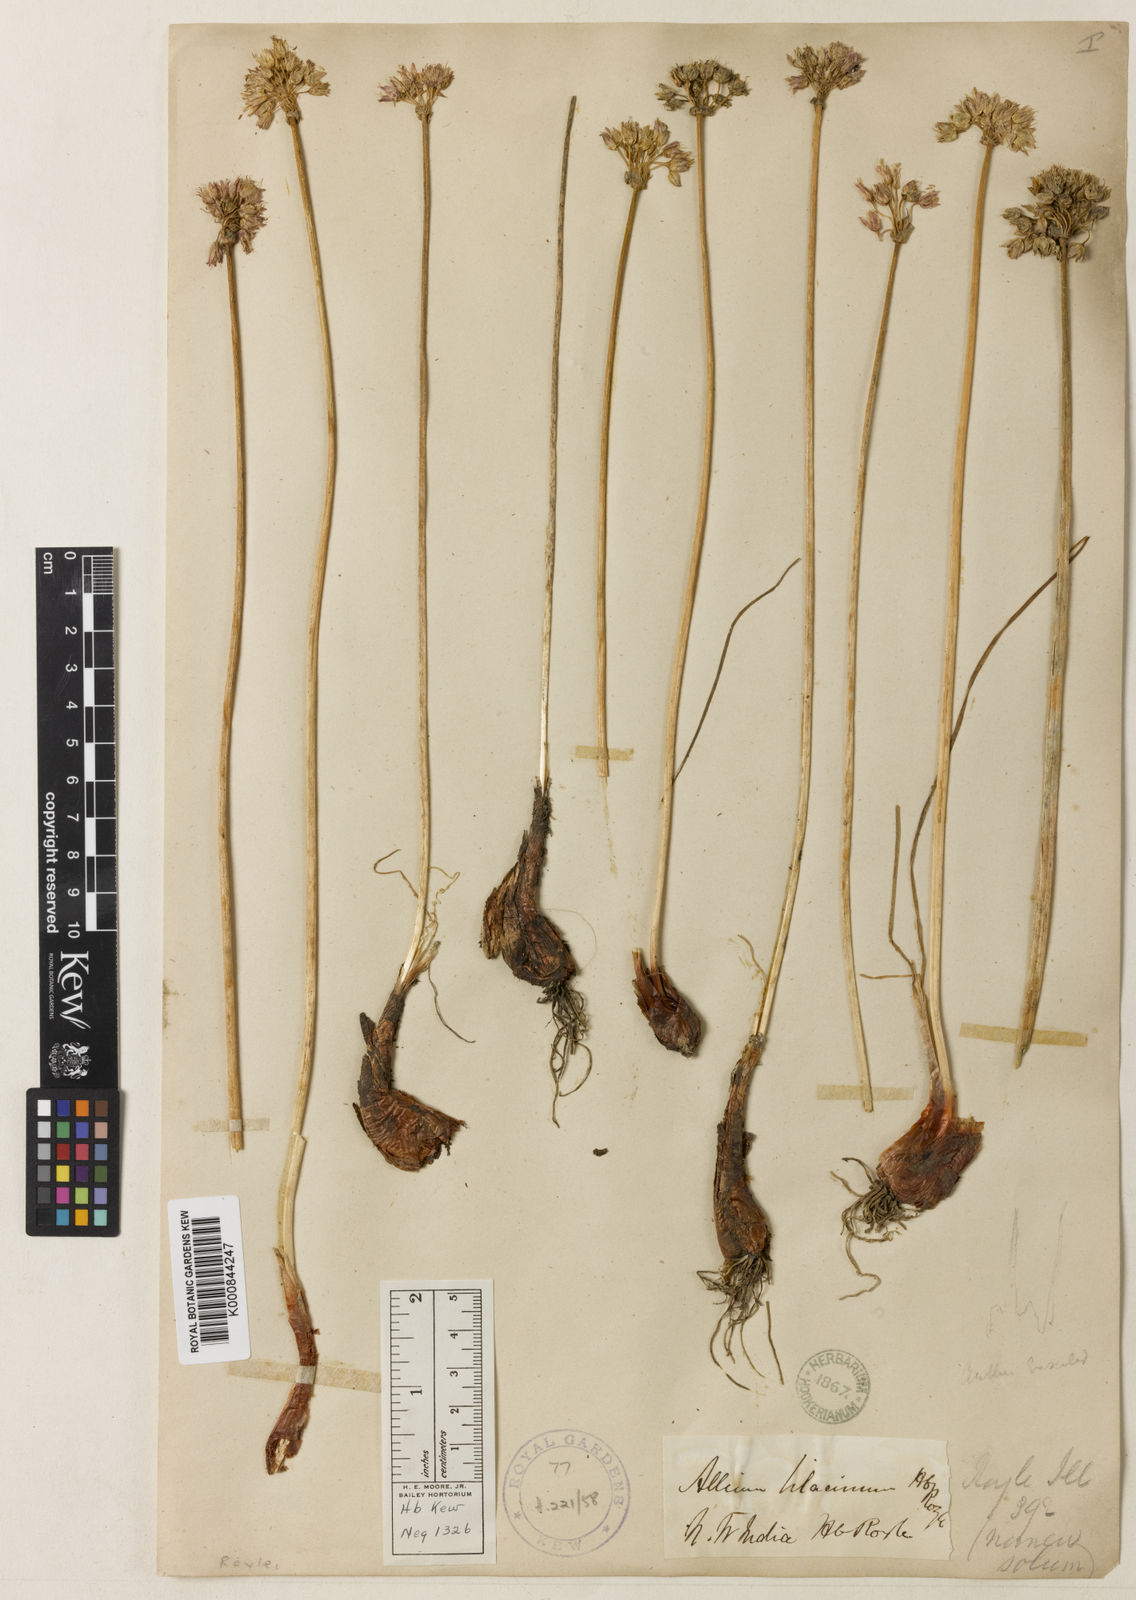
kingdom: Plantae
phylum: Tracheophyta
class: Liliopsida
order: Asparagales
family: Amaryllidaceae
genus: Allium
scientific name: Allium roylei
